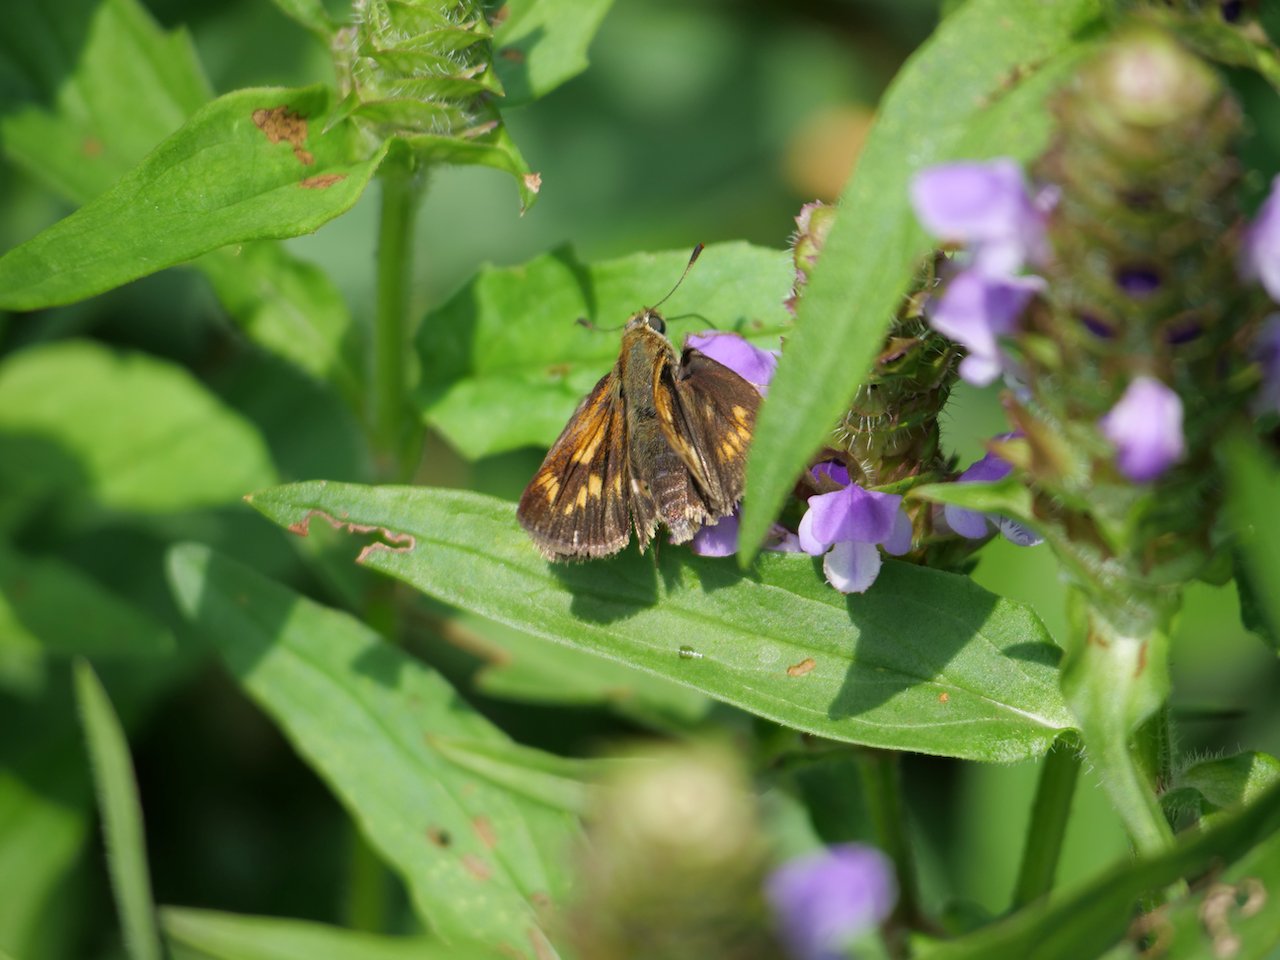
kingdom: Animalia
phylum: Arthropoda
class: Insecta
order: Lepidoptera
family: Hesperiidae
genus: Polites
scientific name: Polites
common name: Long Dash Skipper
